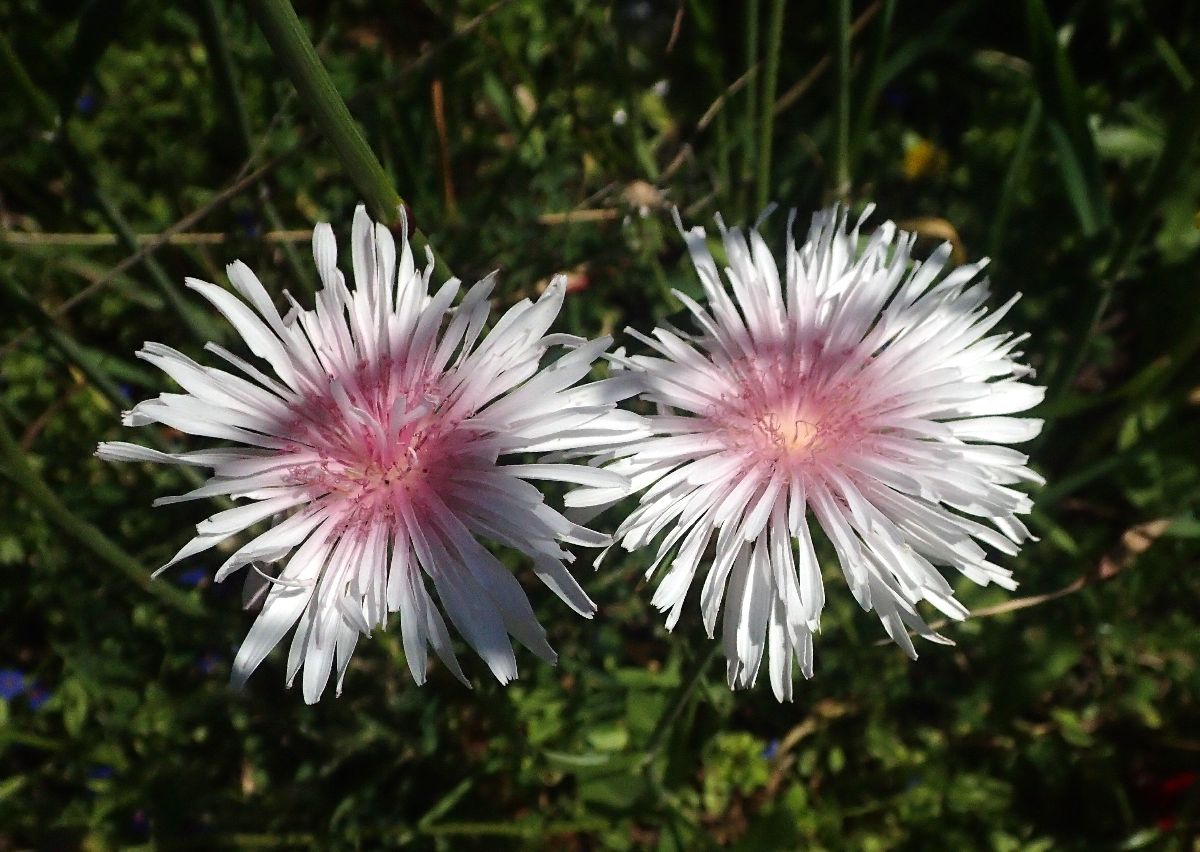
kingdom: Plantae
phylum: Tracheophyta
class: Magnoliopsida
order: Asterales
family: Asteraceae
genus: Crepis
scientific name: Crepis rubra
